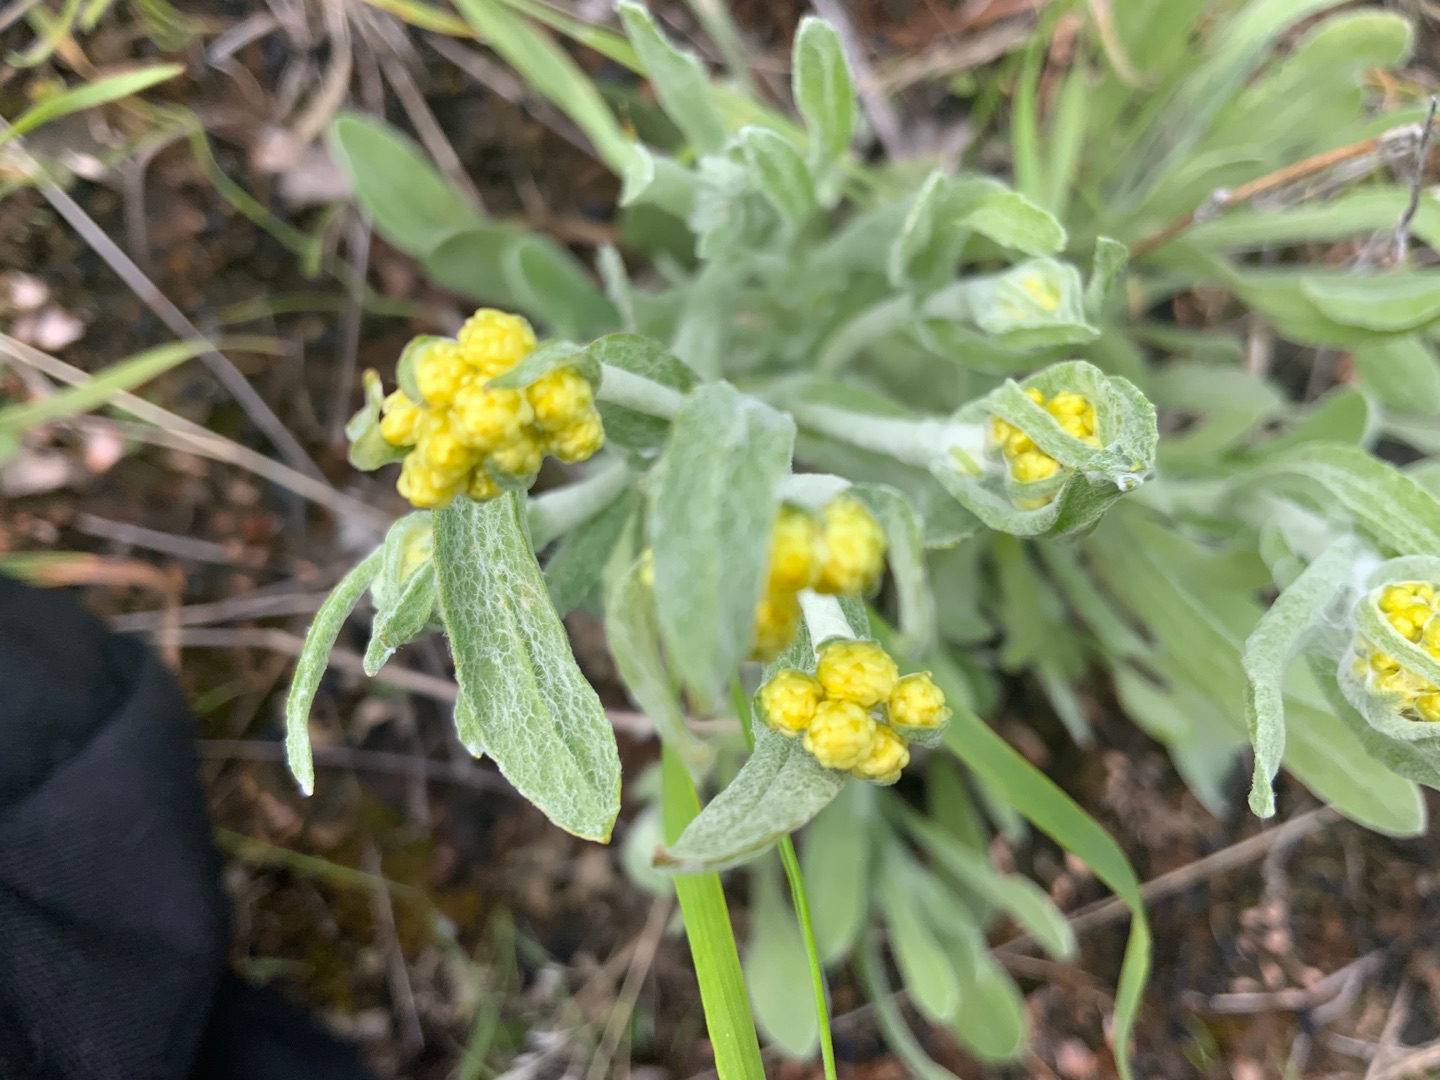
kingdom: Plantae
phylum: Tracheophyta
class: Magnoliopsida
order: Asterales
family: Asteraceae
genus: Helichrysum
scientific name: Helichrysum arenarium
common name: Gul evighedsblomst
